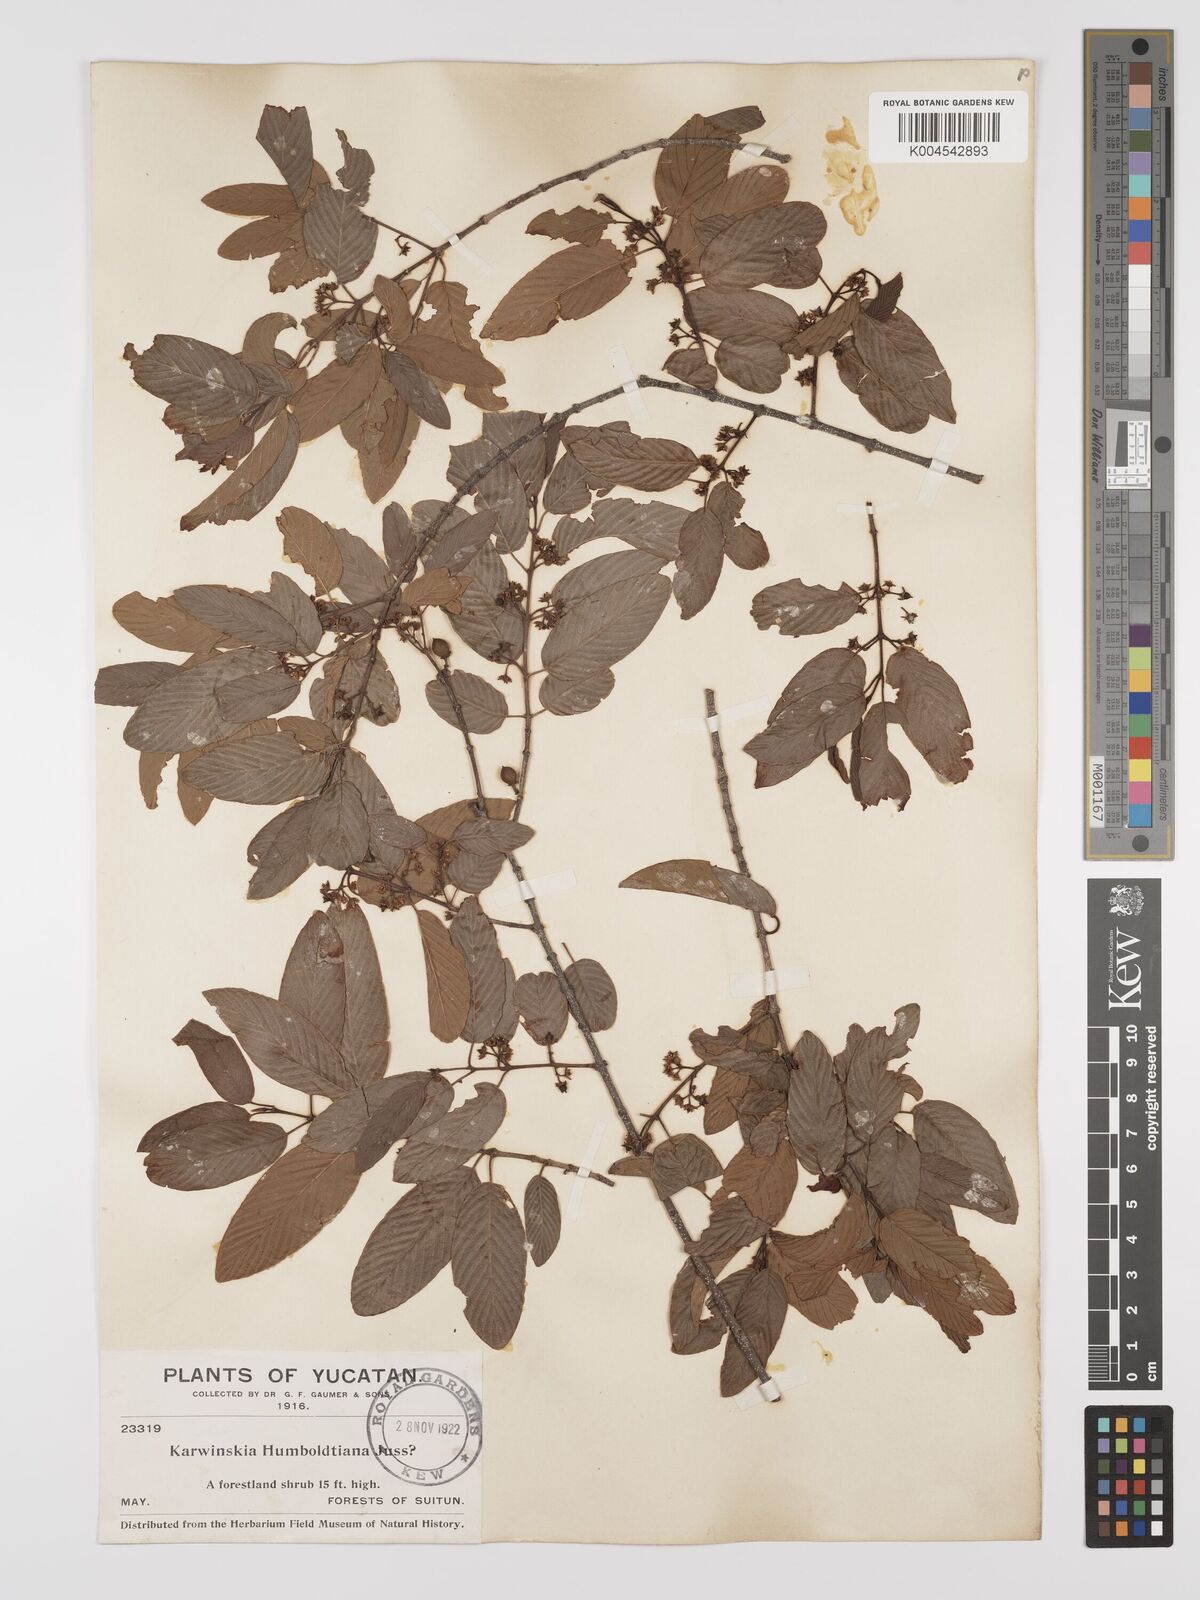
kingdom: Plantae
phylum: Tracheophyta
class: Magnoliopsida
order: Rosales
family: Rhamnaceae
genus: Karwinskia
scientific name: Karwinskia humboldtiana
